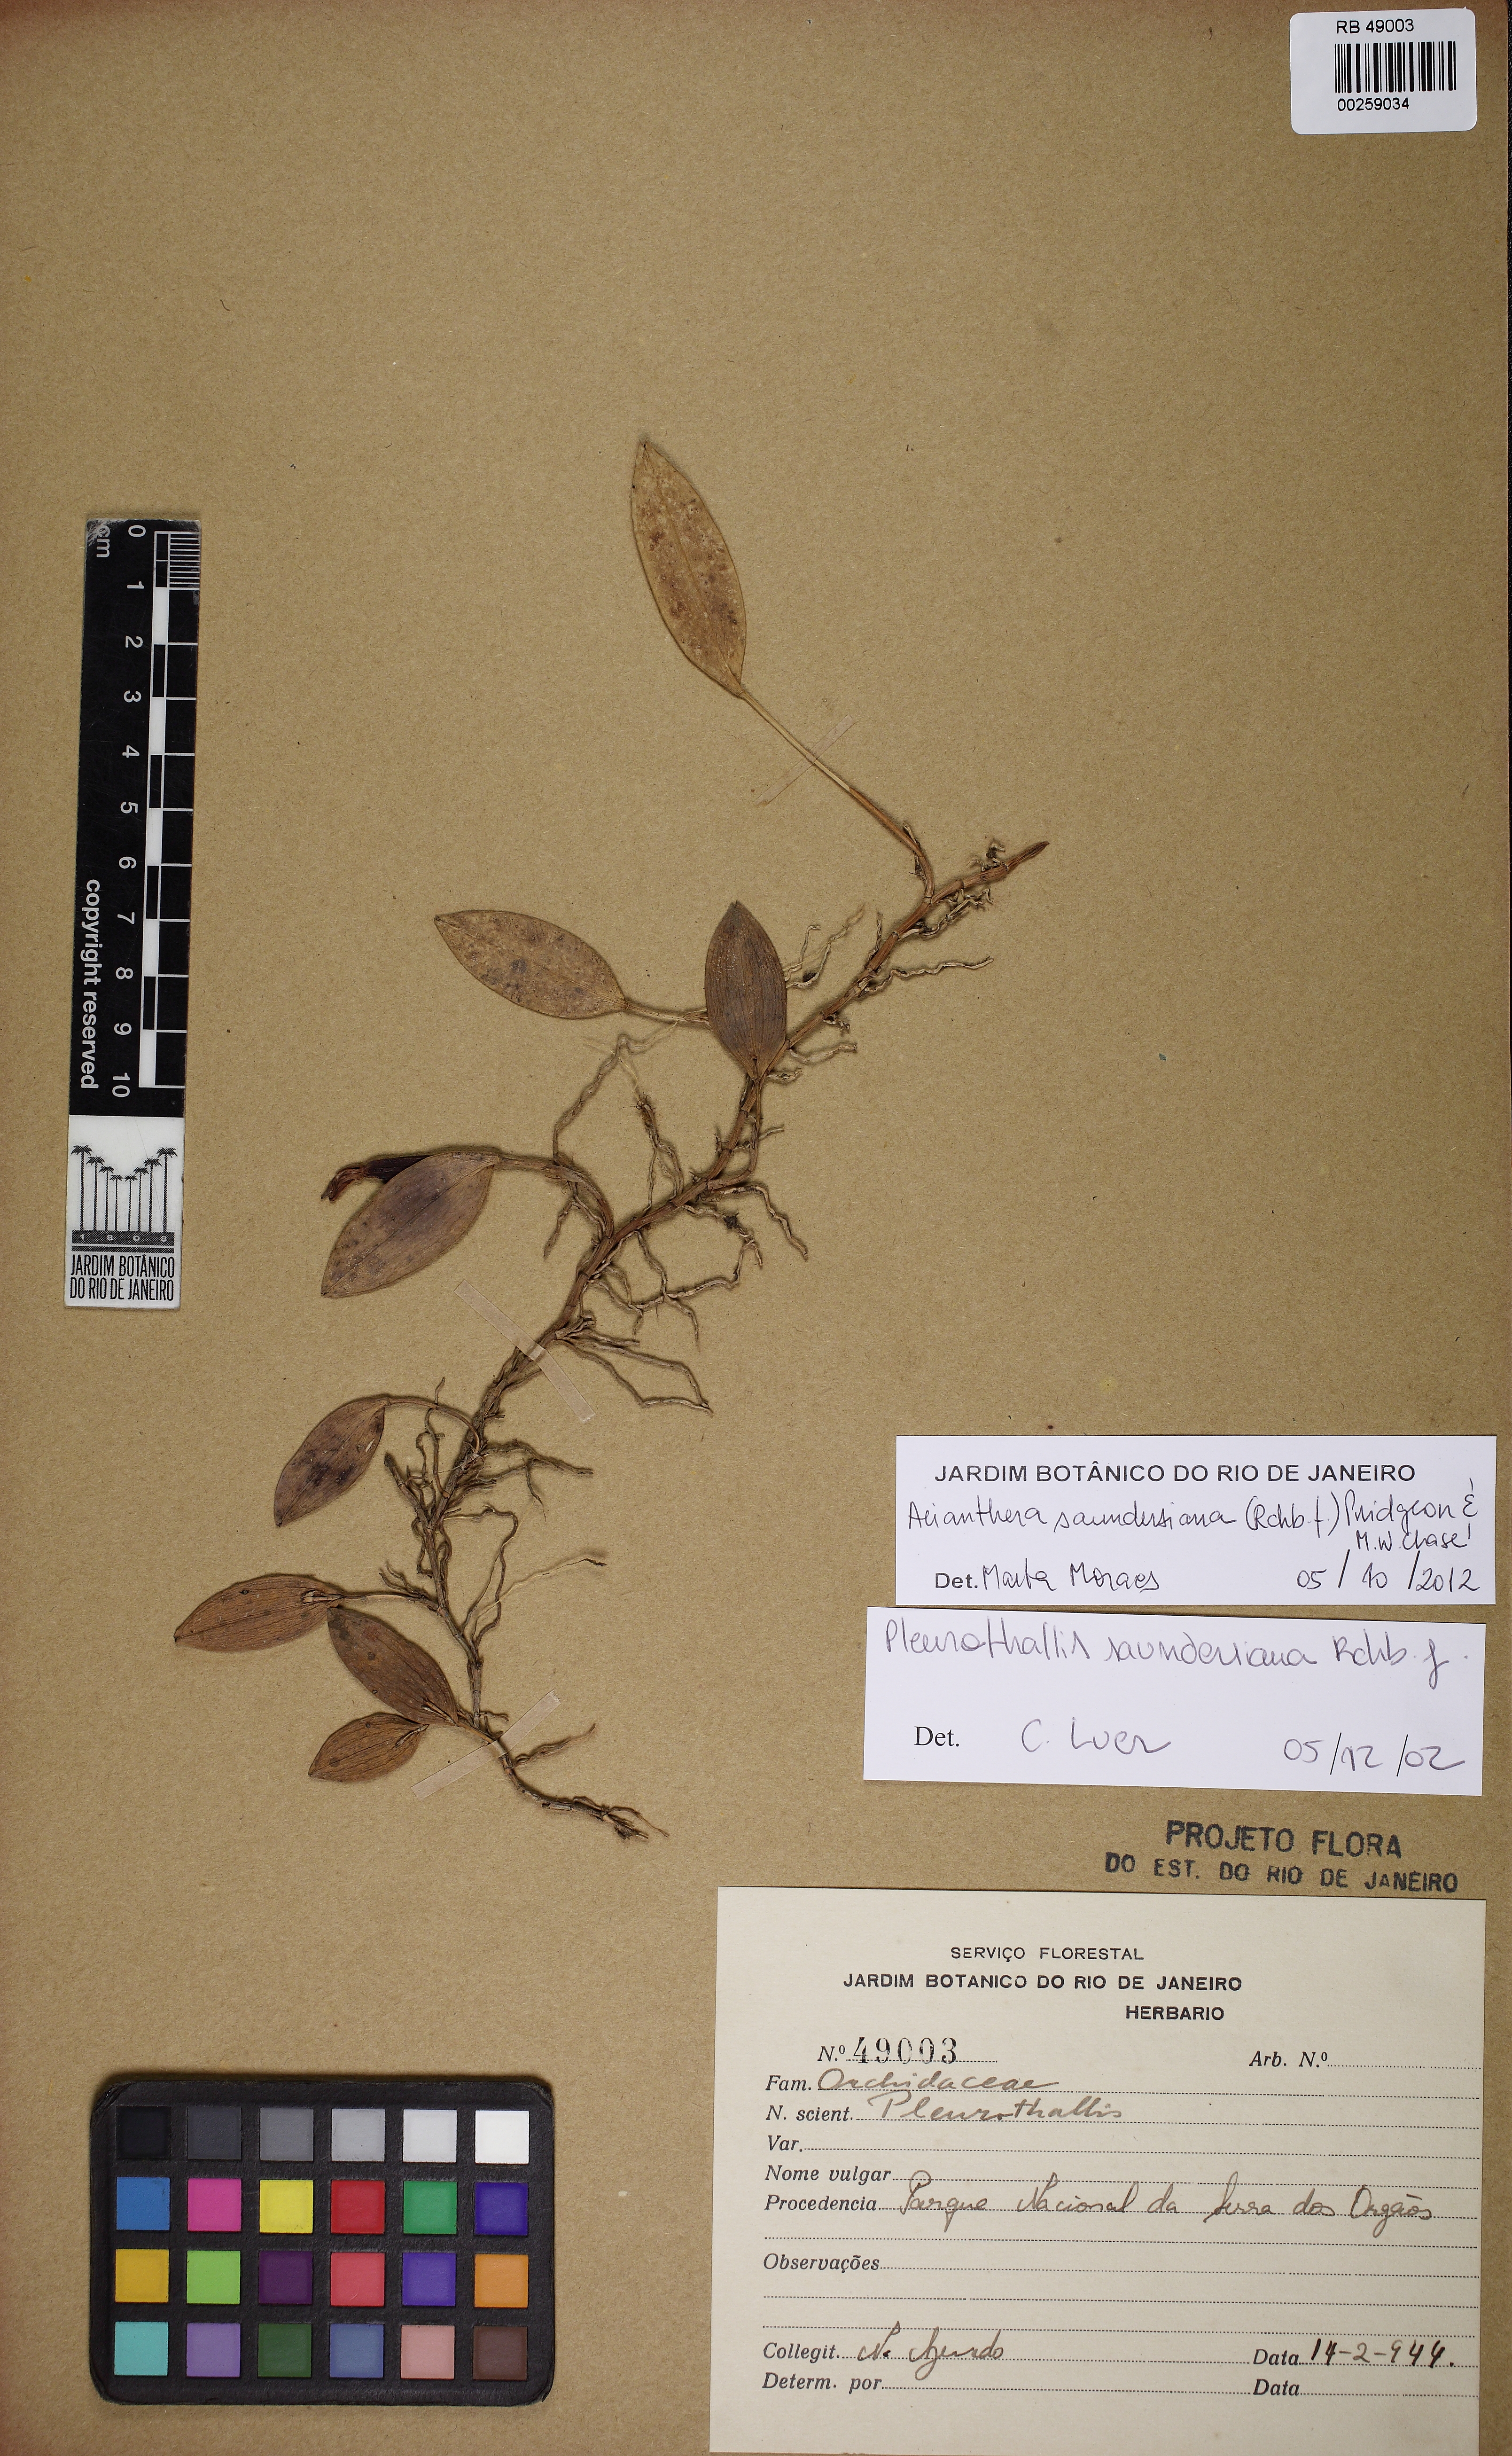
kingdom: Plantae
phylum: Tracheophyta
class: Liliopsida
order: Asparagales
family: Orchidaceae
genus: Acianthera
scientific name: Acianthera saundersiana
